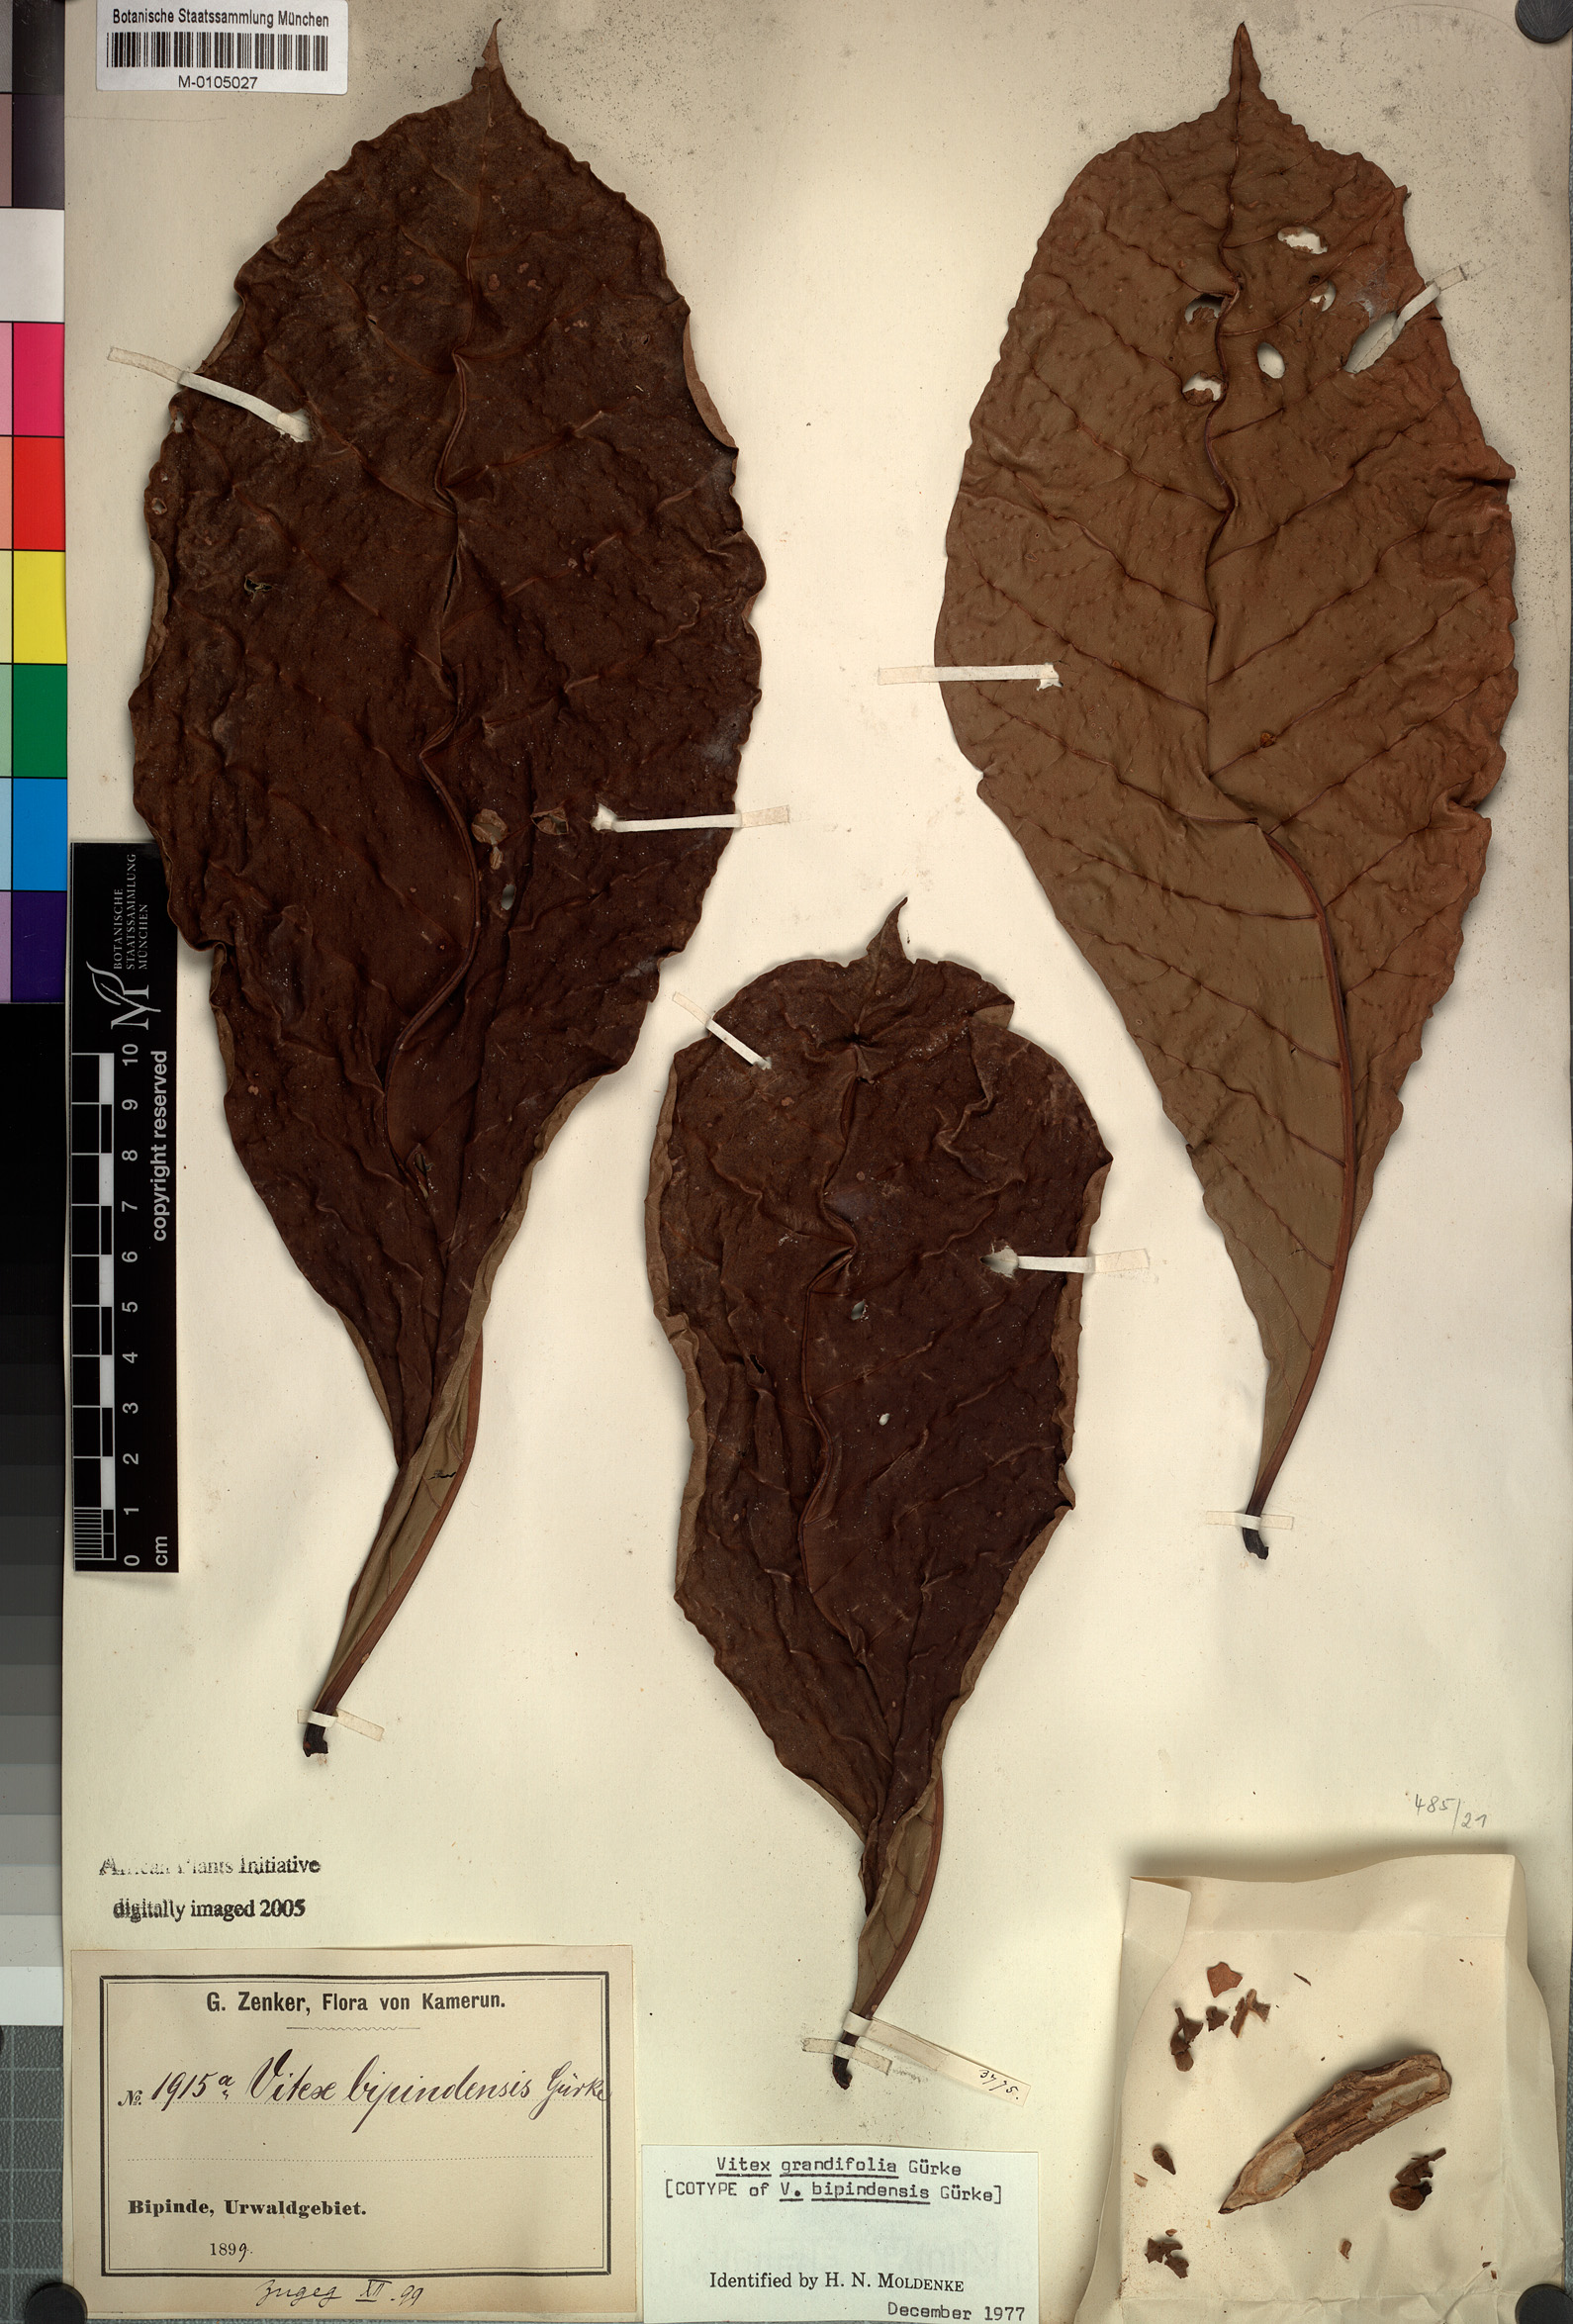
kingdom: Plantae
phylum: Tracheophyta
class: Magnoliopsida
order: Lamiales
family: Lamiaceae
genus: Vitex
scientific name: Vitex grandifolia
